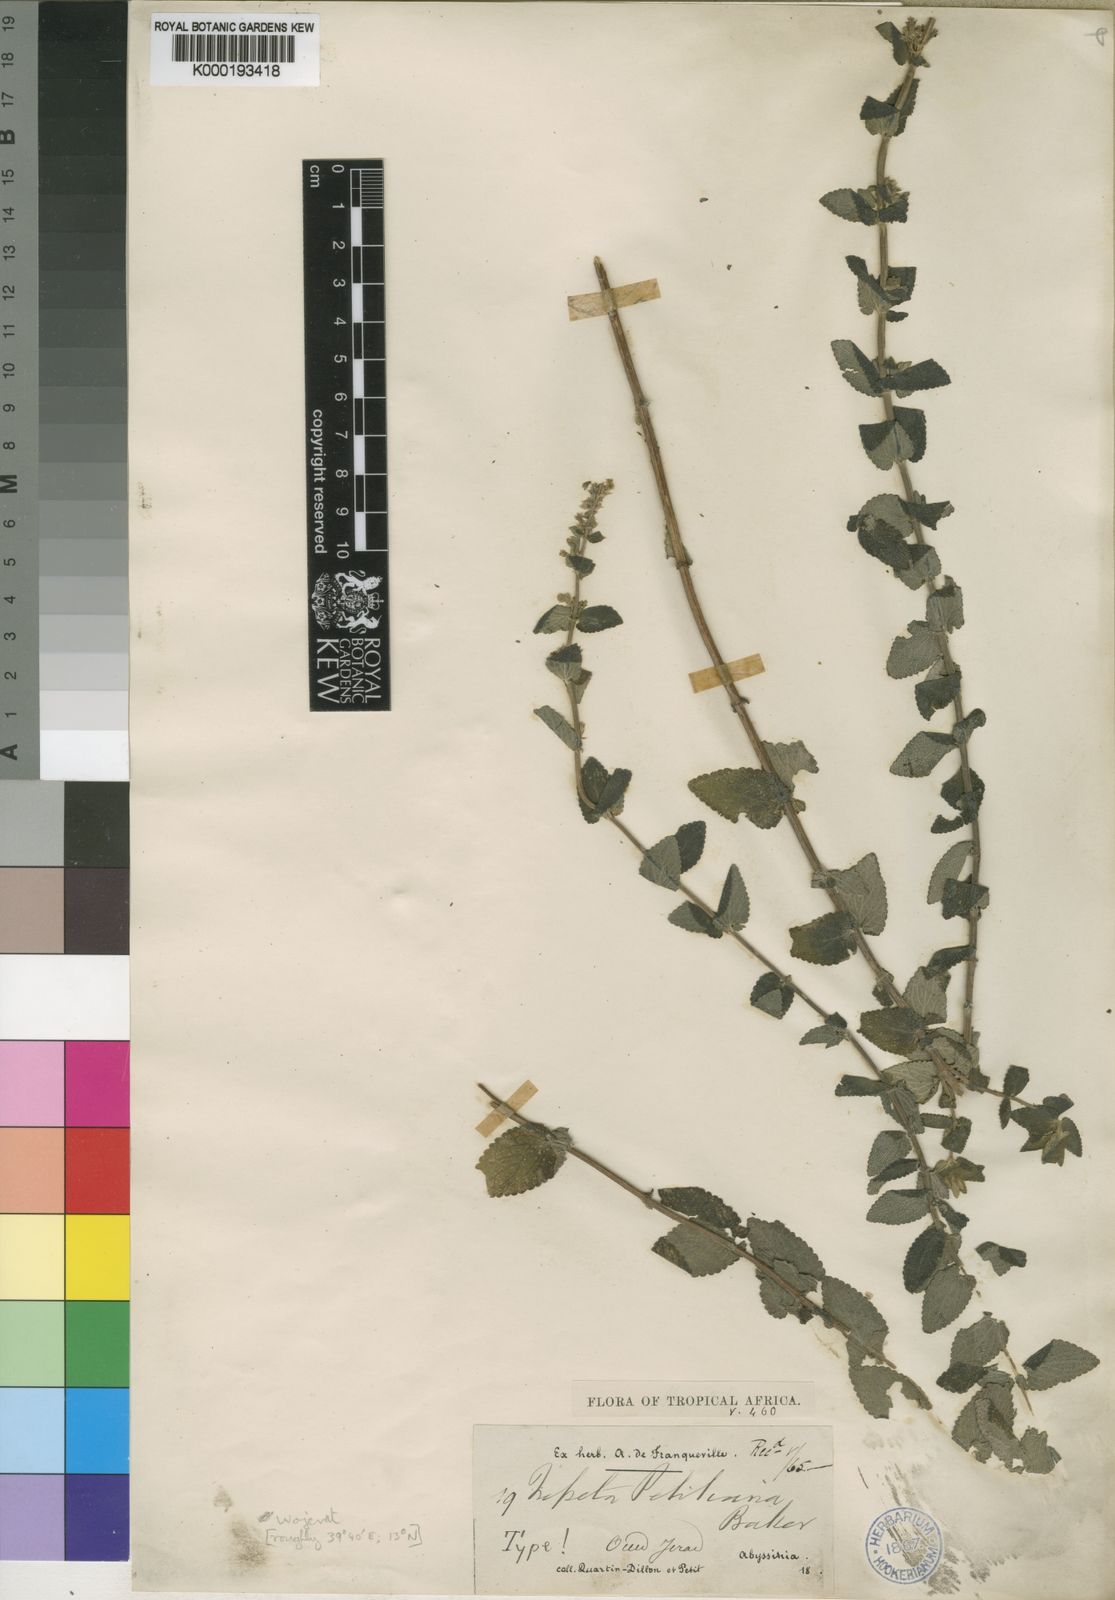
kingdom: Plantae
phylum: Tracheophyta
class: Magnoliopsida
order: Lamiales
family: Lamiaceae
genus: Nepeta
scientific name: Nepeta azurea
